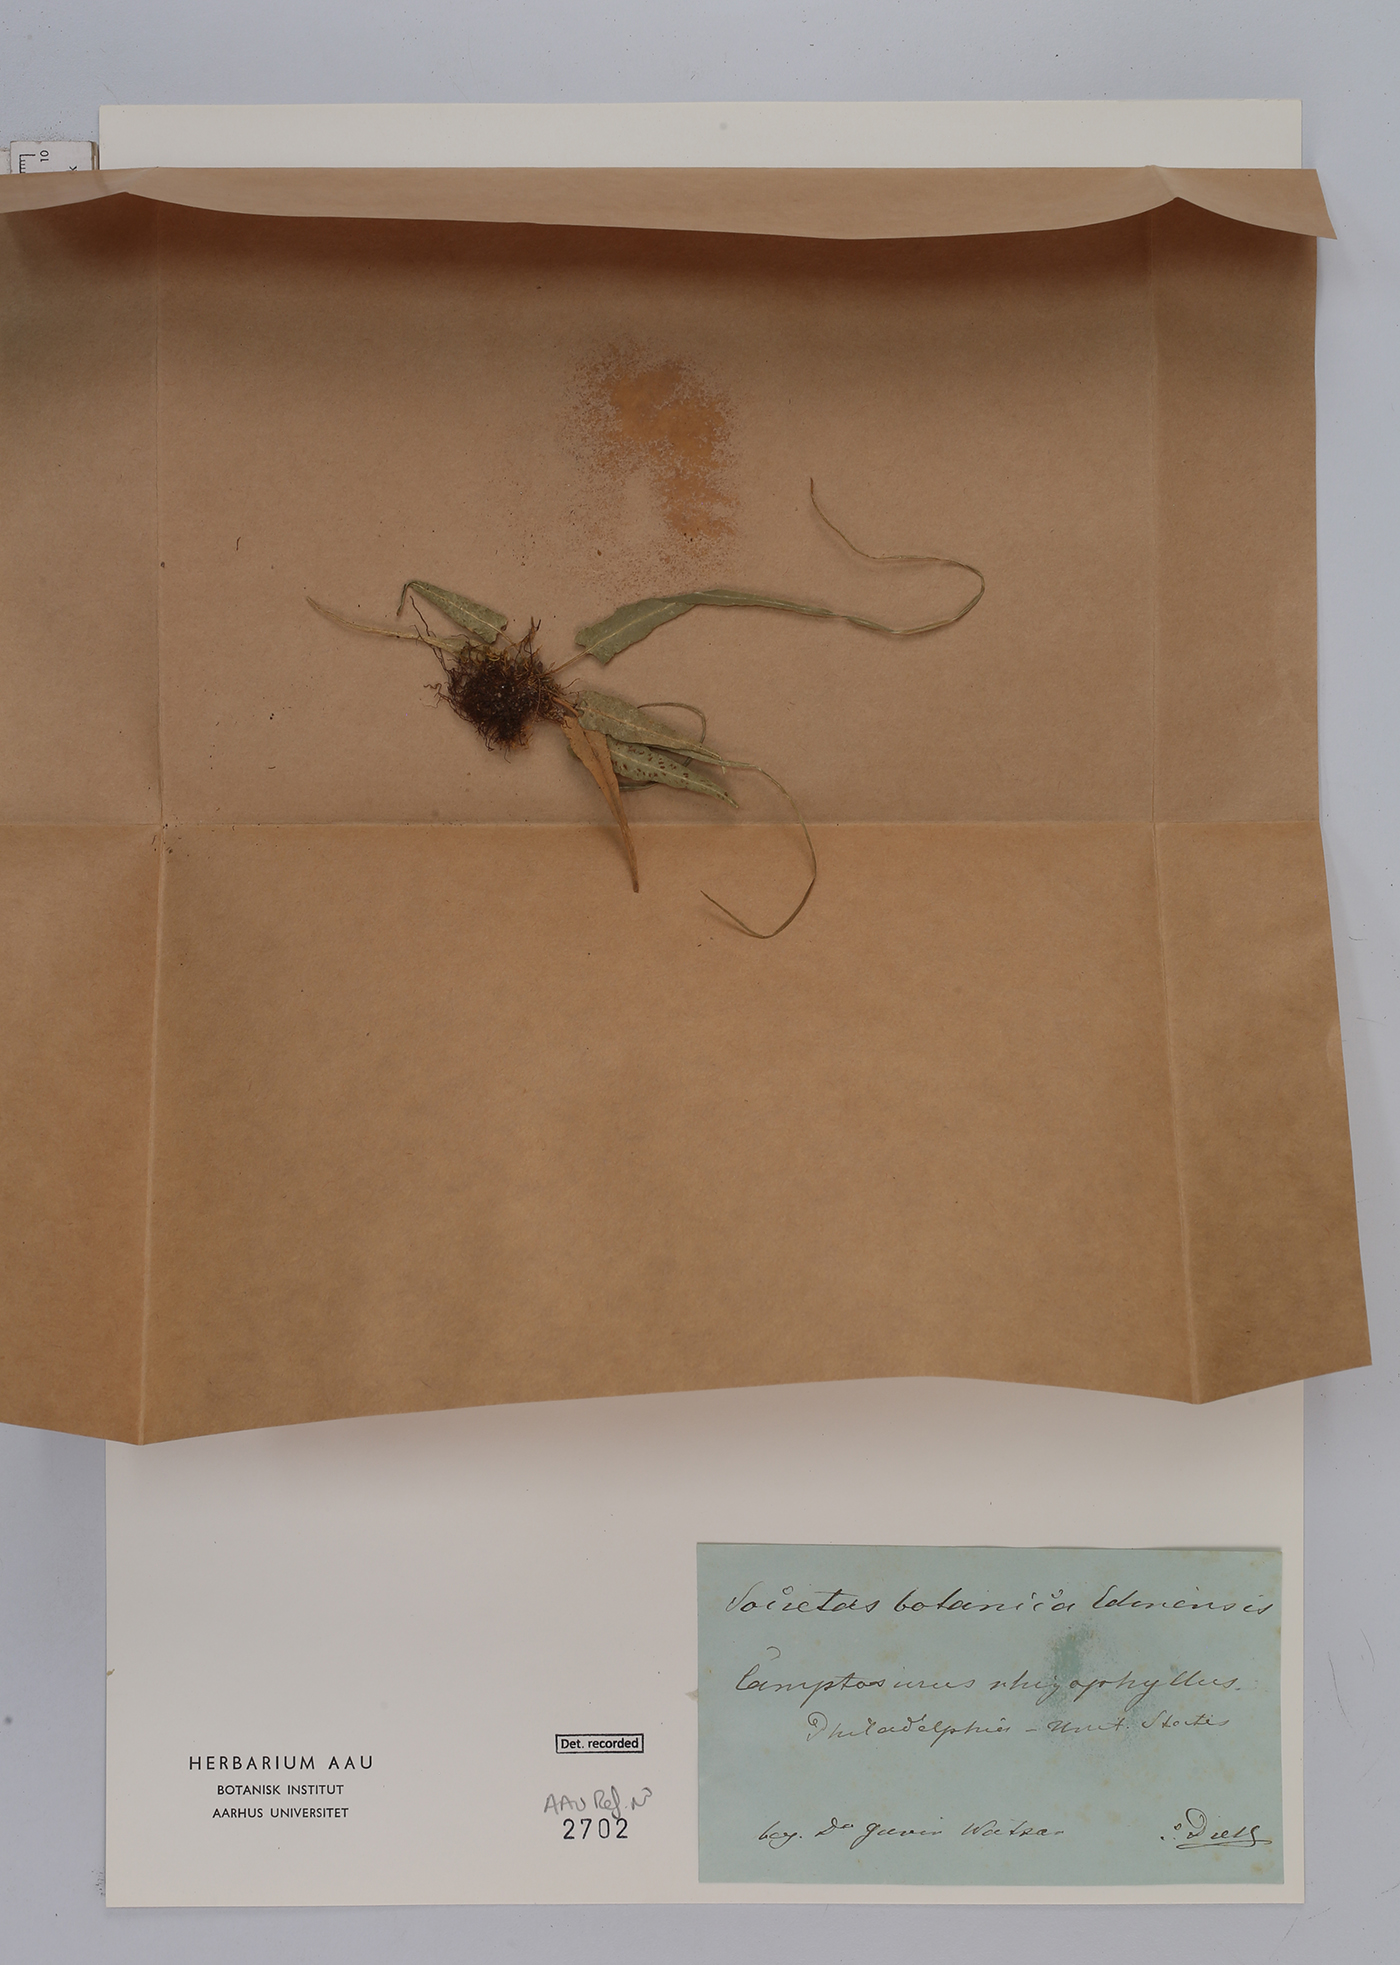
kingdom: Plantae
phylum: Tracheophyta
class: Polypodiopsida
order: Polypodiales
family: Aspleniaceae
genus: Asplenium
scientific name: Asplenium rhizophyllum
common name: Walking fern
